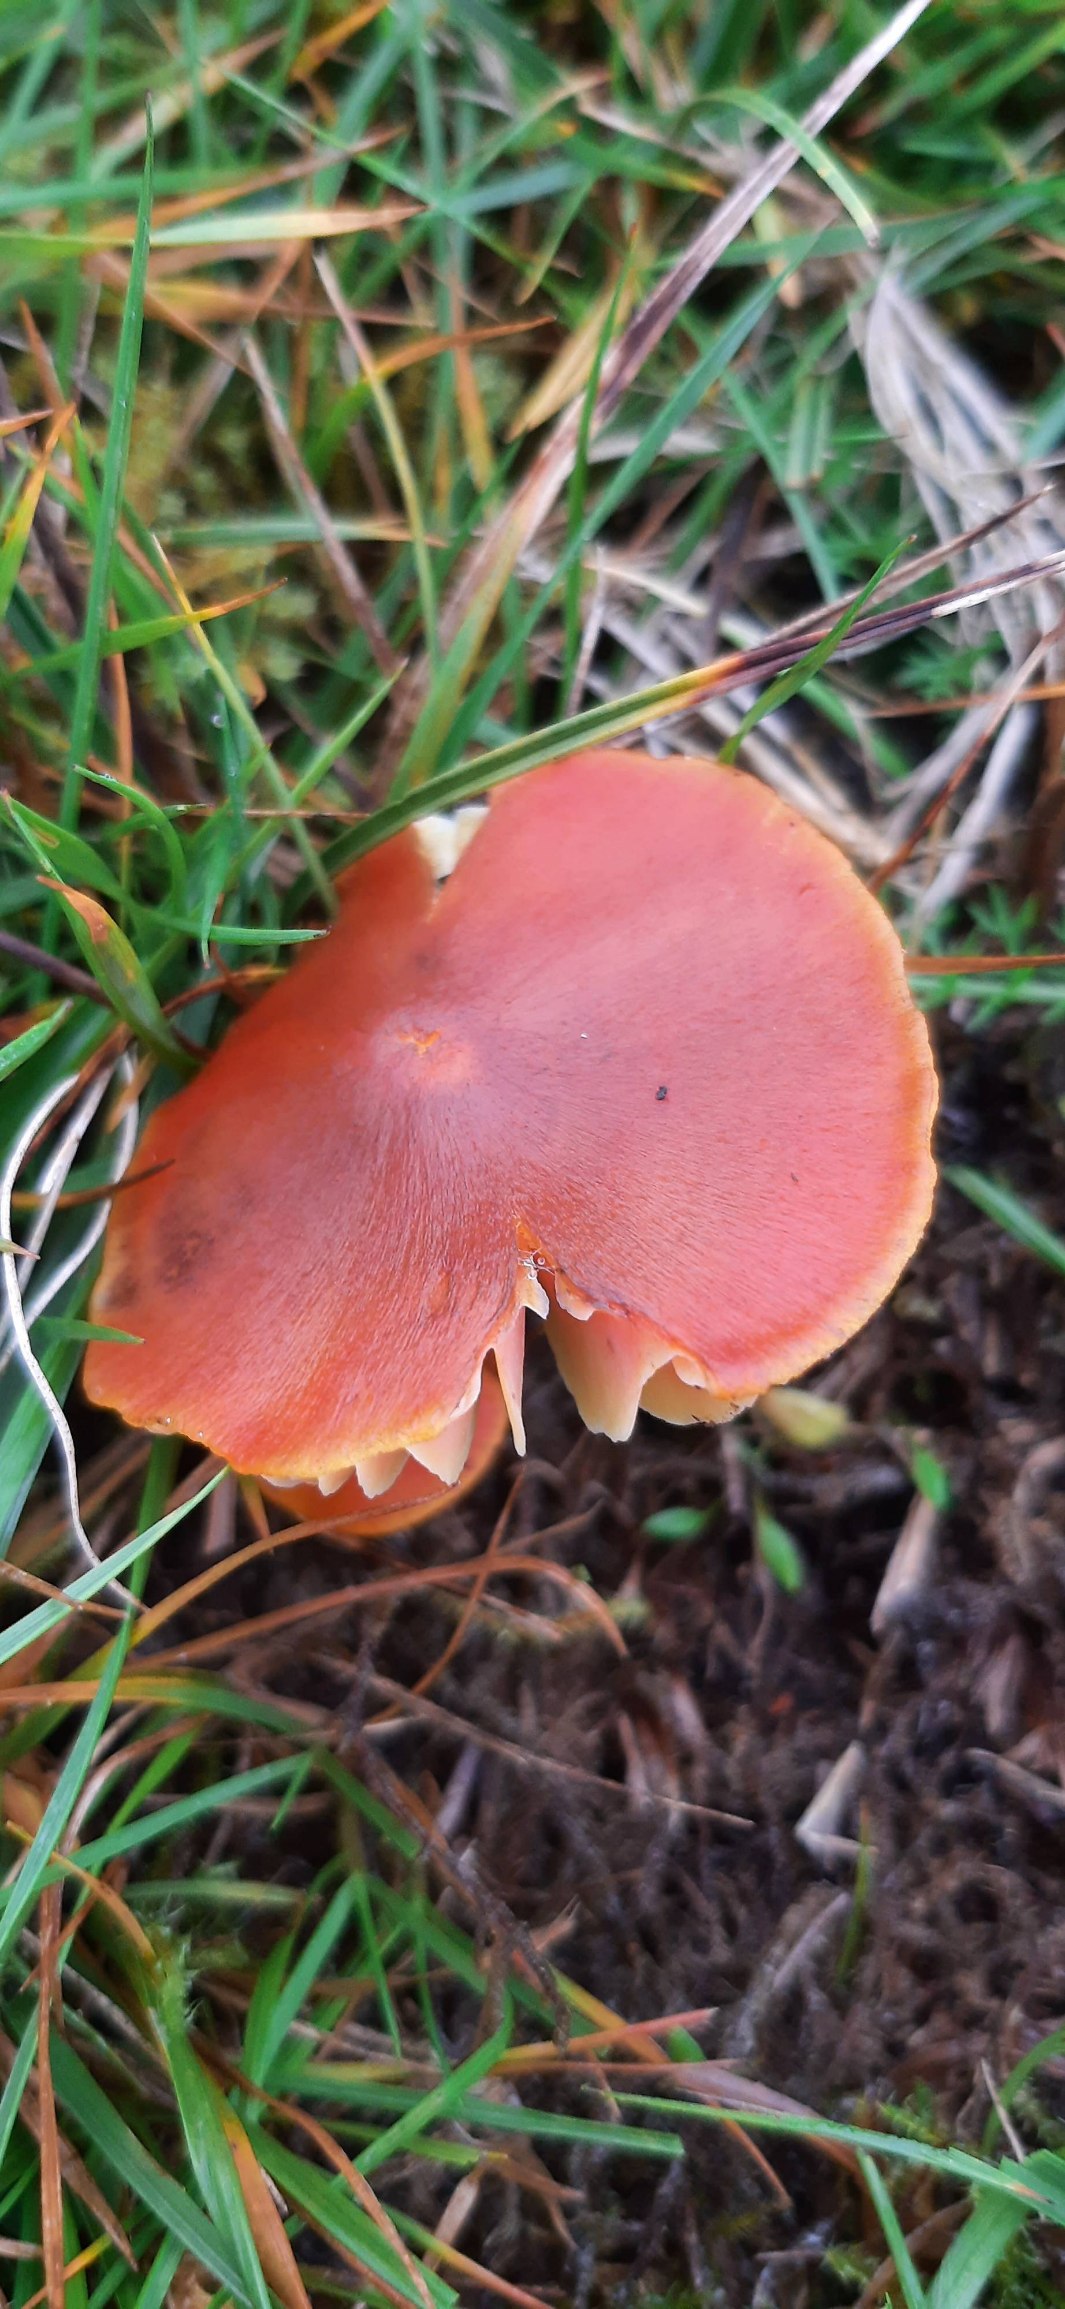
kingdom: Fungi
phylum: Basidiomycota
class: Agaricomycetes
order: Agaricales
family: Hygrophoraceae
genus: Hygrocybe
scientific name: Hygrocybe conica
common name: Kegle-vokshat
